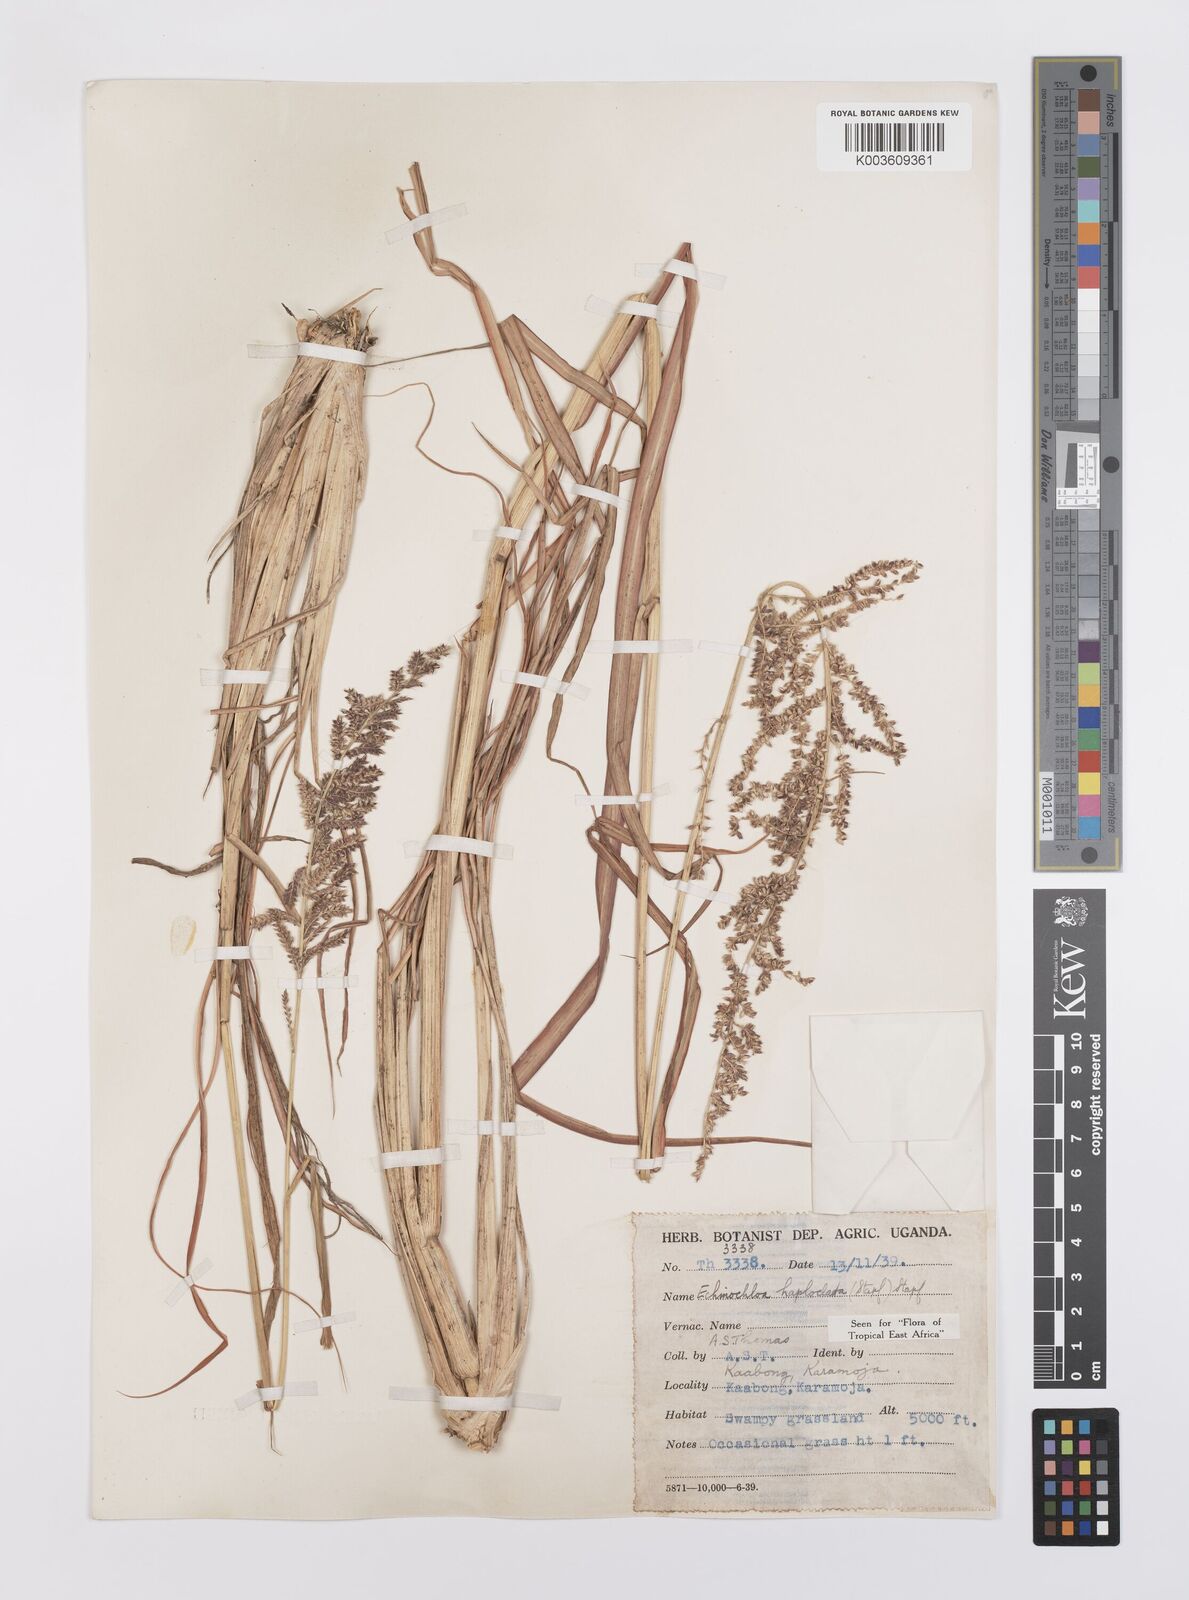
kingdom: Plantae
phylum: Tracheophyta
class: Liliopsida
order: Poales
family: Poaceae
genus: Echinochloa
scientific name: Echinochloa haploclada
